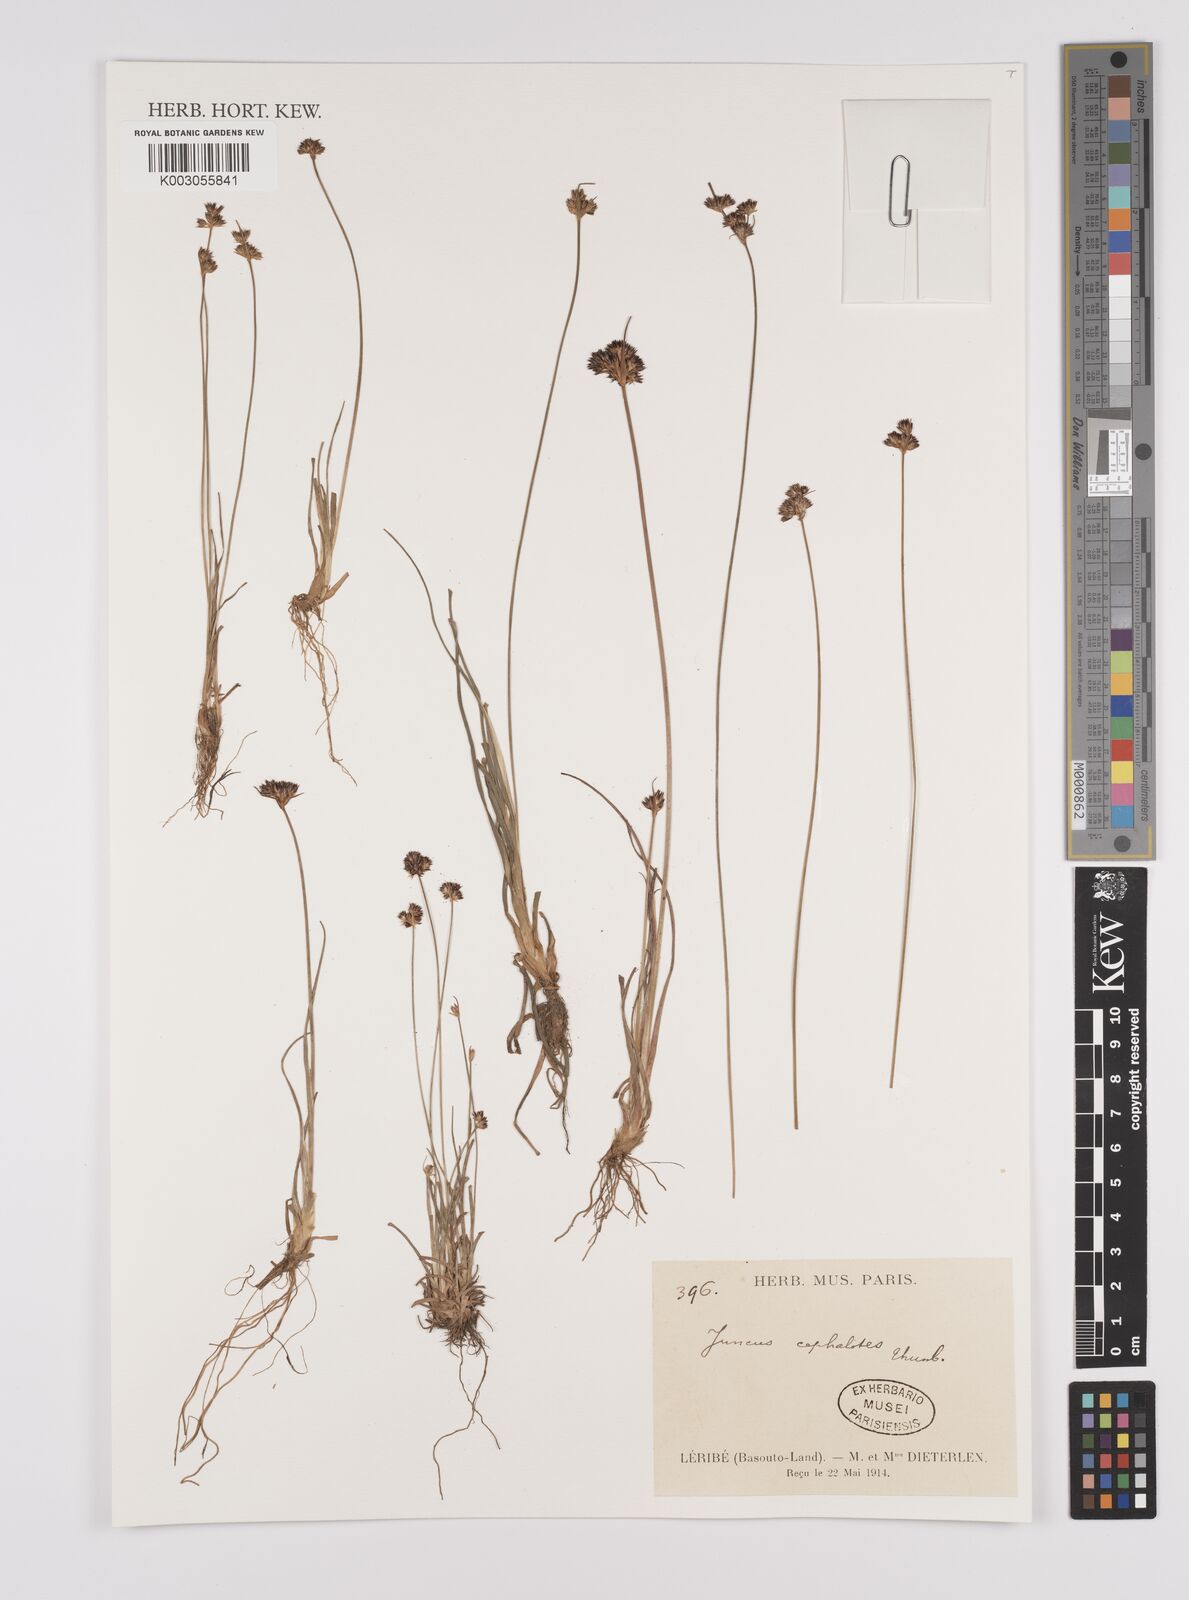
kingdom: Plantae
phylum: Tracheophyta
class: Liliopsida
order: Poales
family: Juncaceae
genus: Juncus
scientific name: Juncus cephalotes
